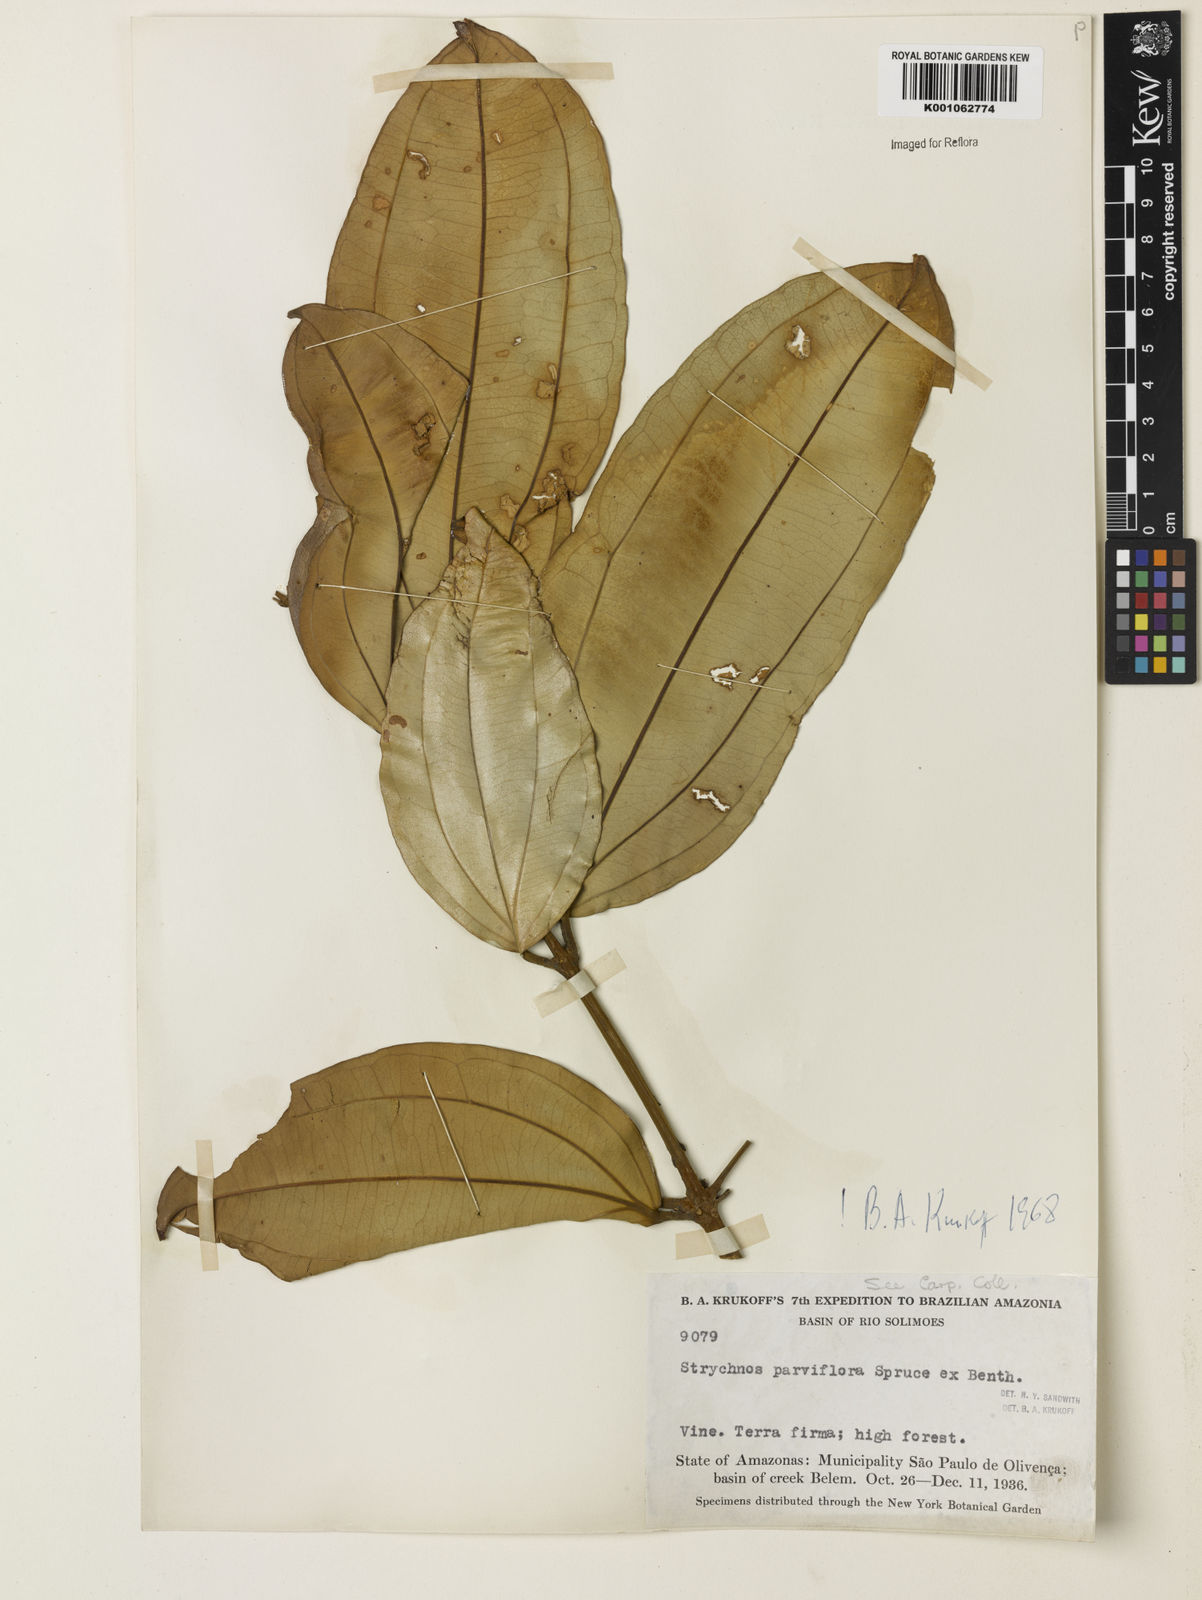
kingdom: Plantae
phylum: Tracheophyta
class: Magnoliopsida
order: Gentianales
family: Loganiaceae
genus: Strychnos
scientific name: Strychnos parviflora
